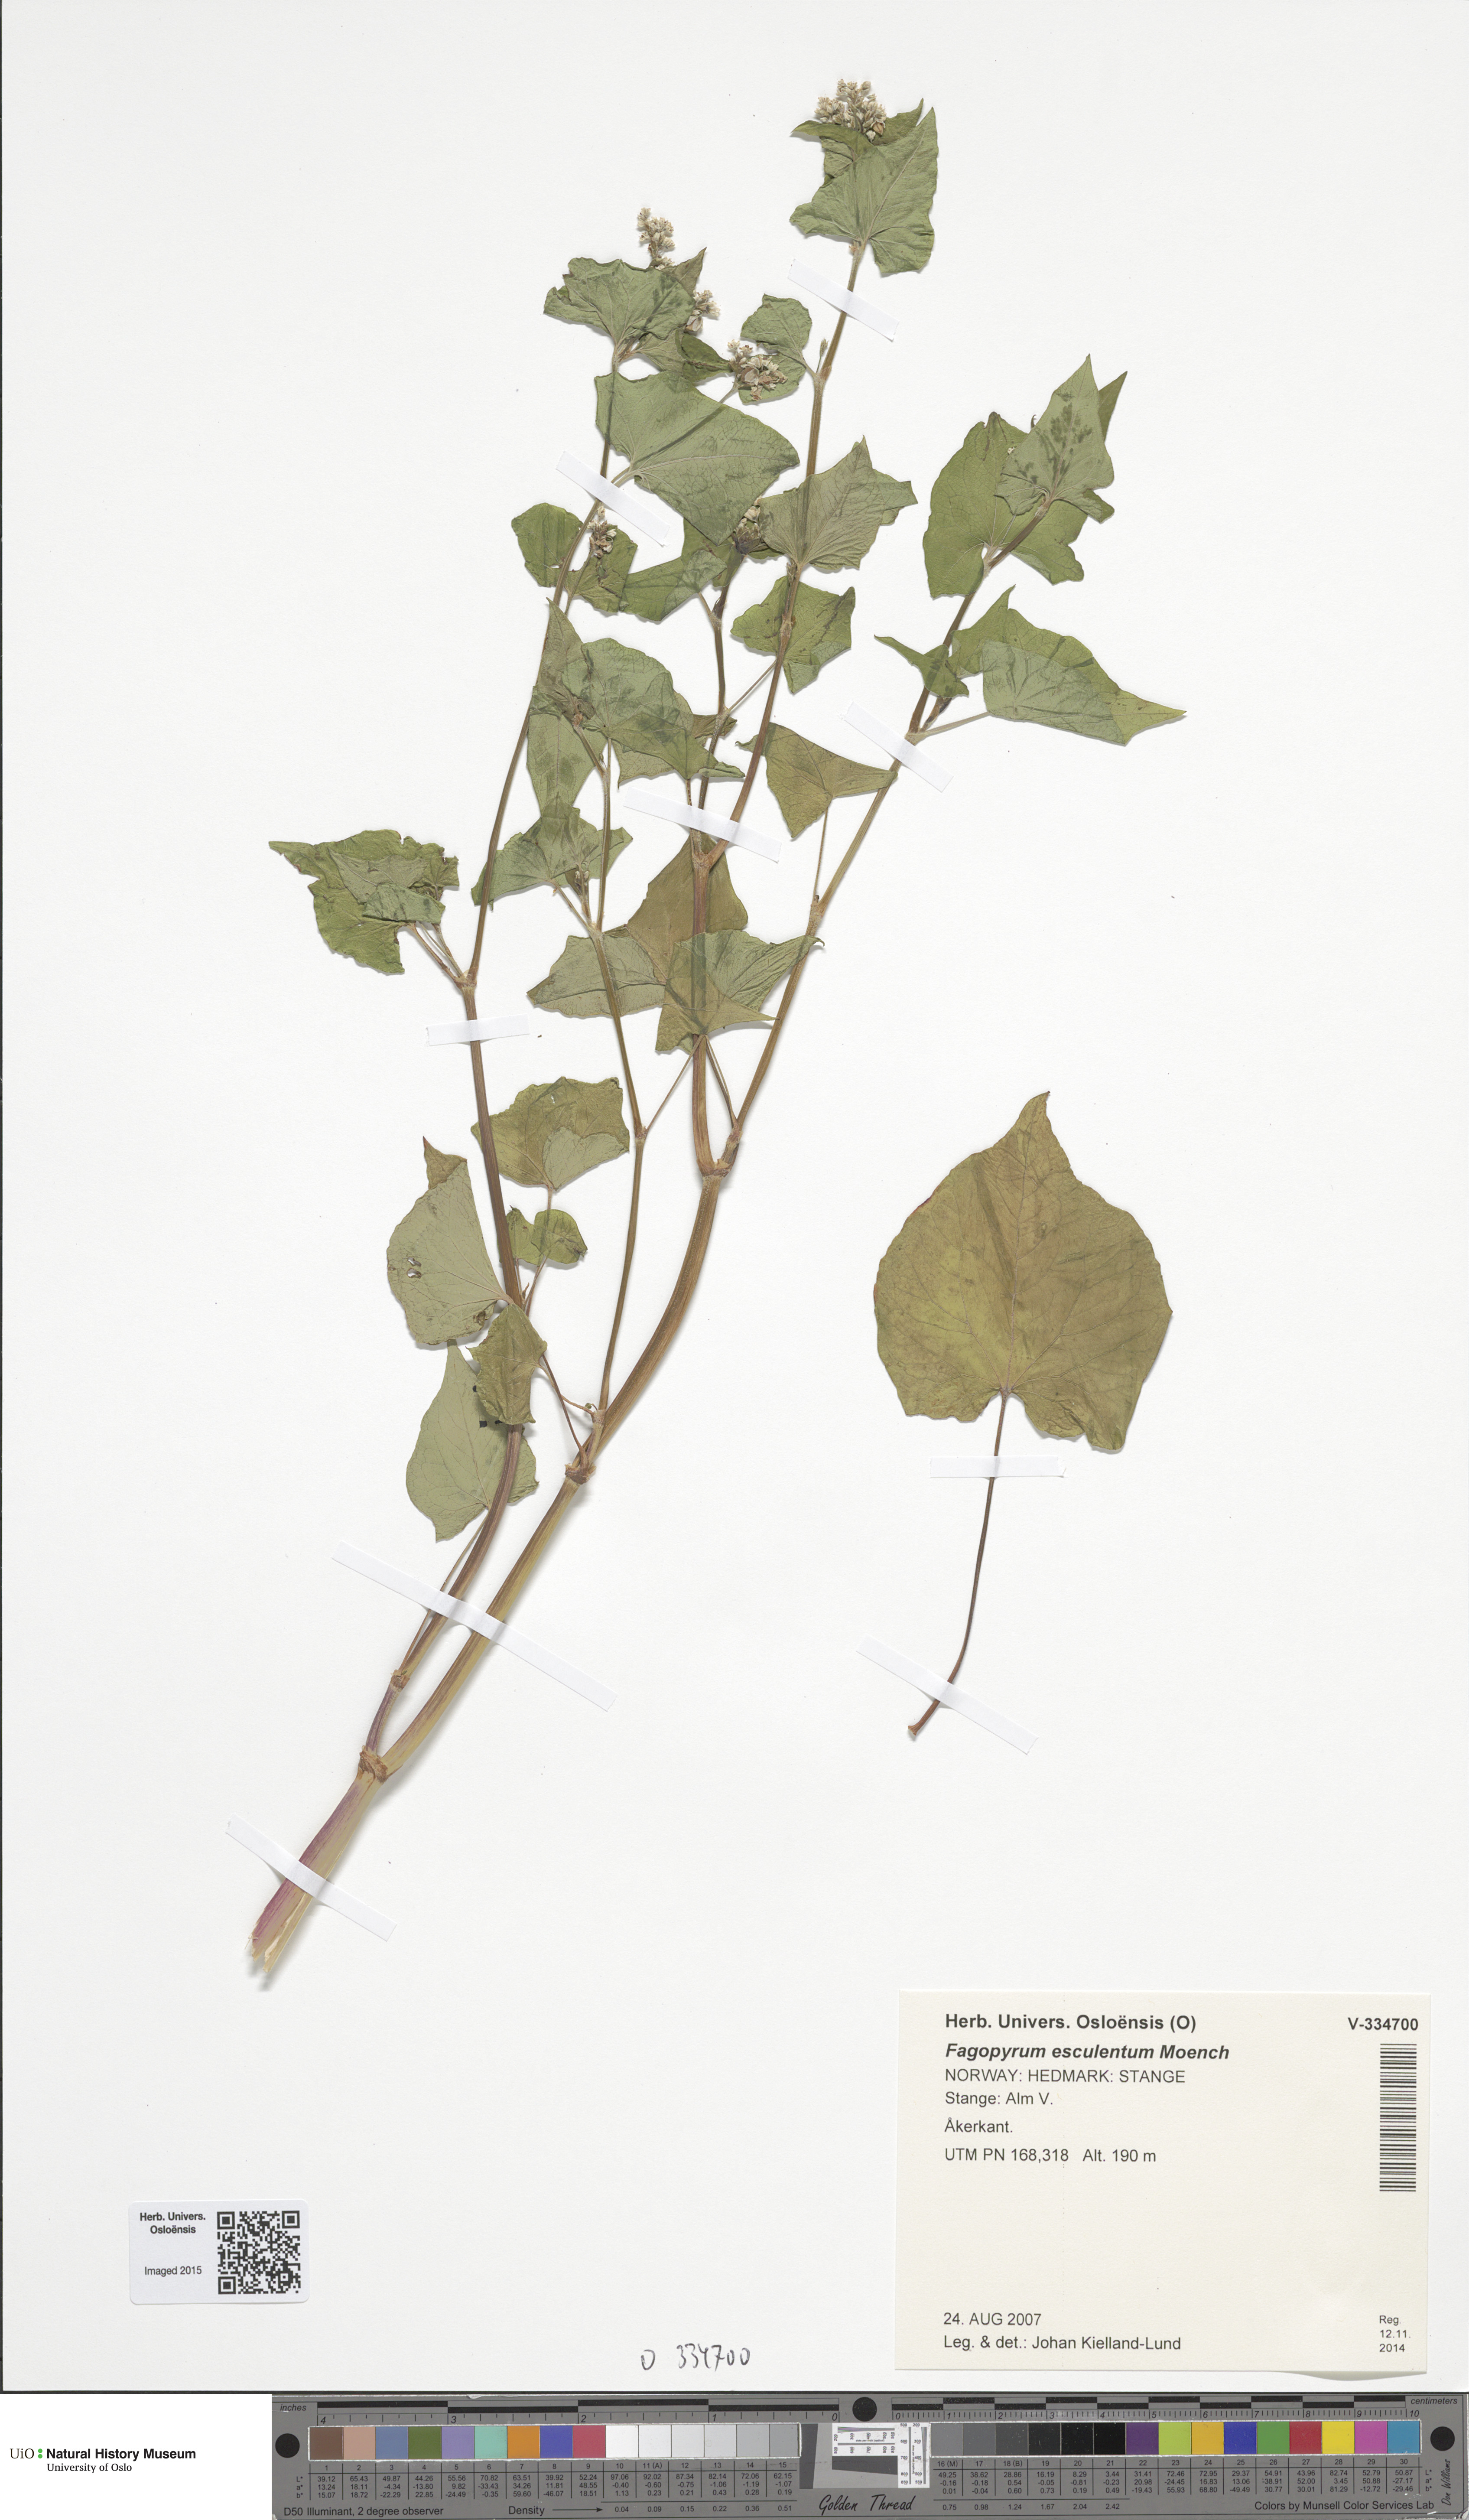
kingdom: Plantae
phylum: Tracheophyta
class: Magnoliopsida
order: Caryophyllales
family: Polygonaceae
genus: Fagopyrum
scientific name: Fagopyrum esculentum
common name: Buckwheat
